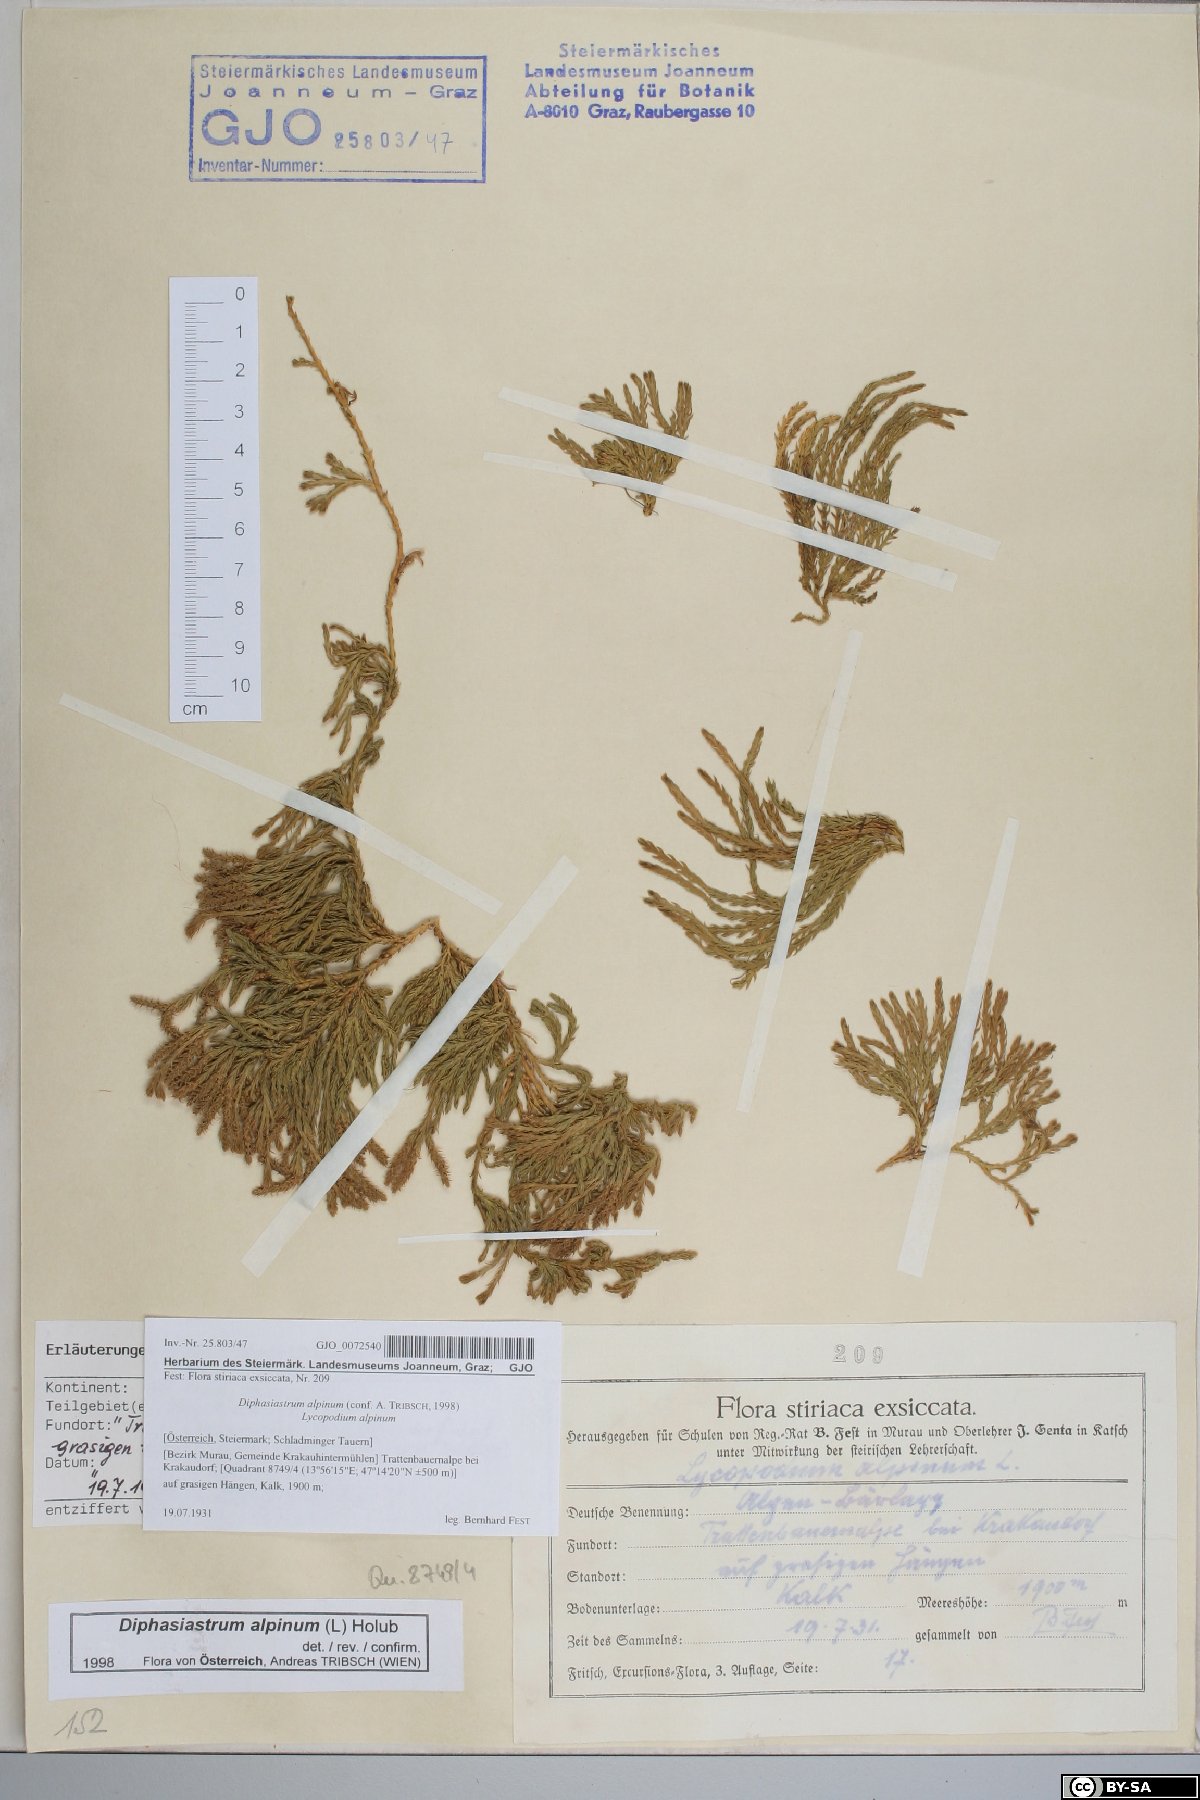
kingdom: Plantae
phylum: Tracheophyta
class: Lycopodiopsida
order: Lycopodiales
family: Lycopodiaceae
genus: Diphasiastrum
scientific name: Diphasiastrum alpinum
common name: Alpine clubmoss
